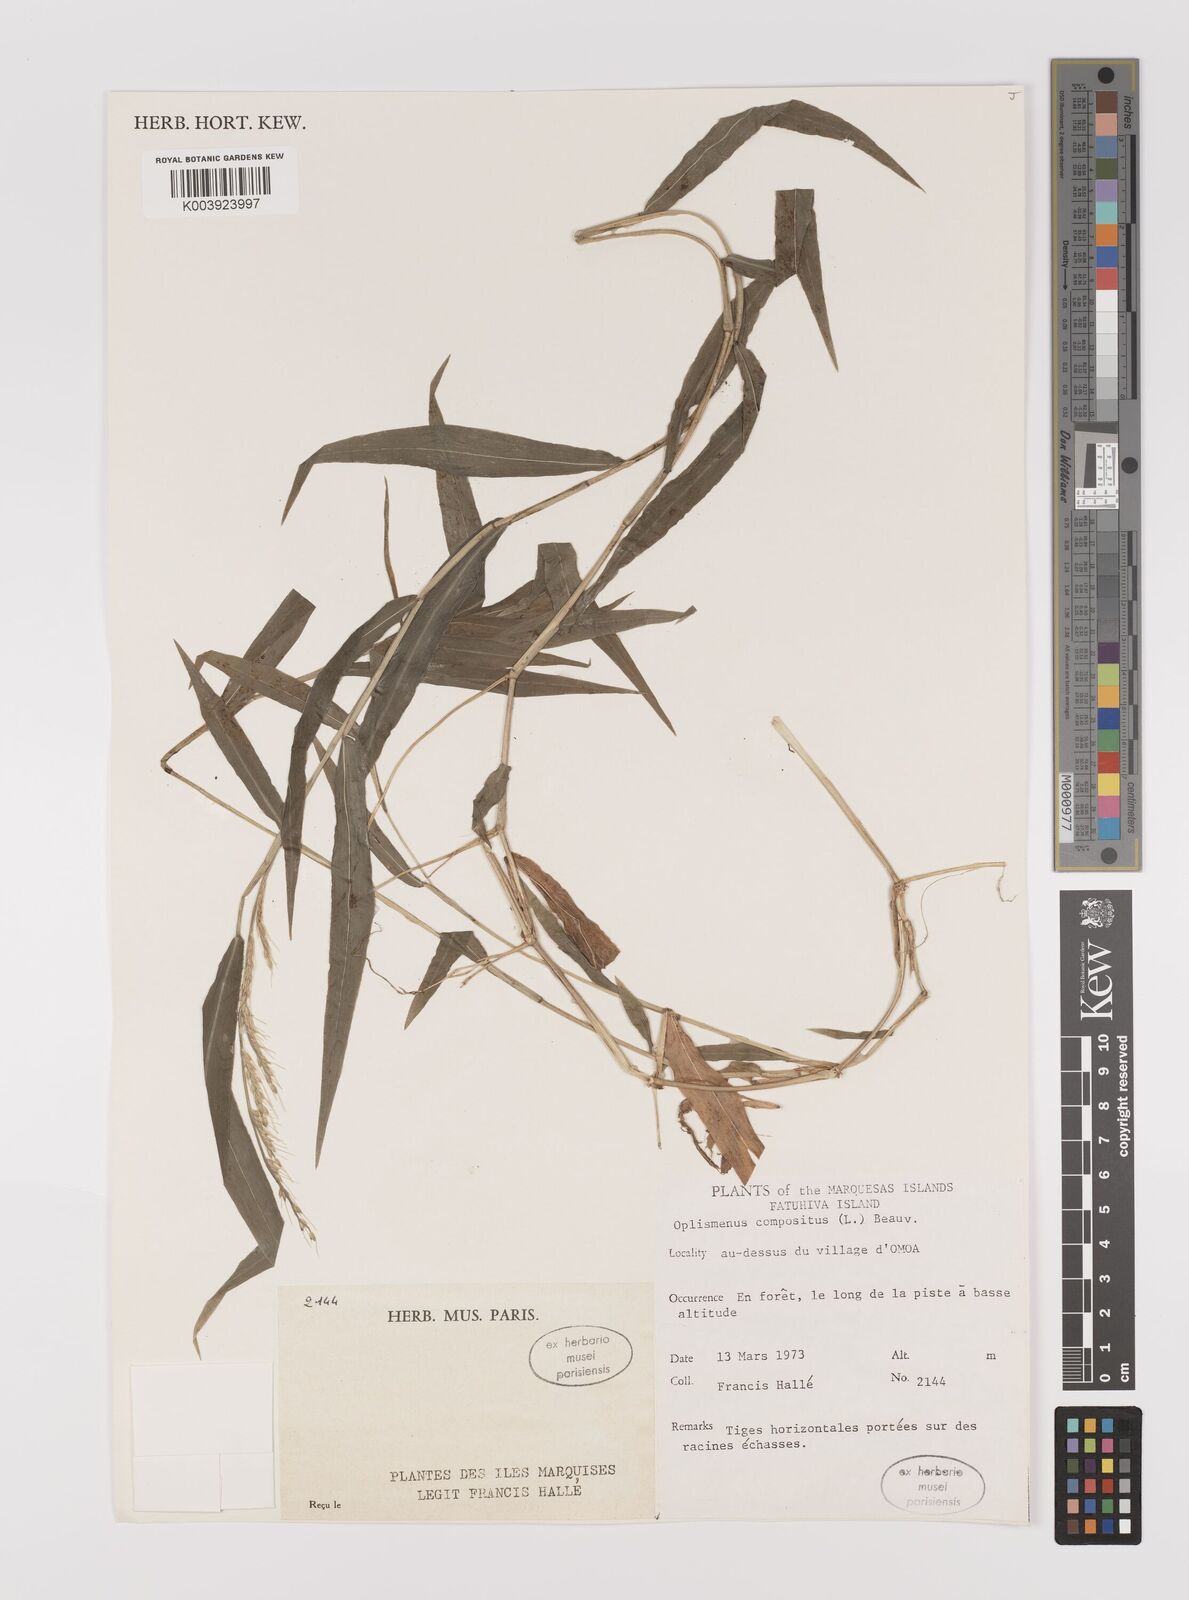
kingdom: Plantae
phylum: Tracheophyta
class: Liliopsida
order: Poales
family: Poaceae
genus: Oplismenus
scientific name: Oplismenus compositus
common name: Running mountain grass
